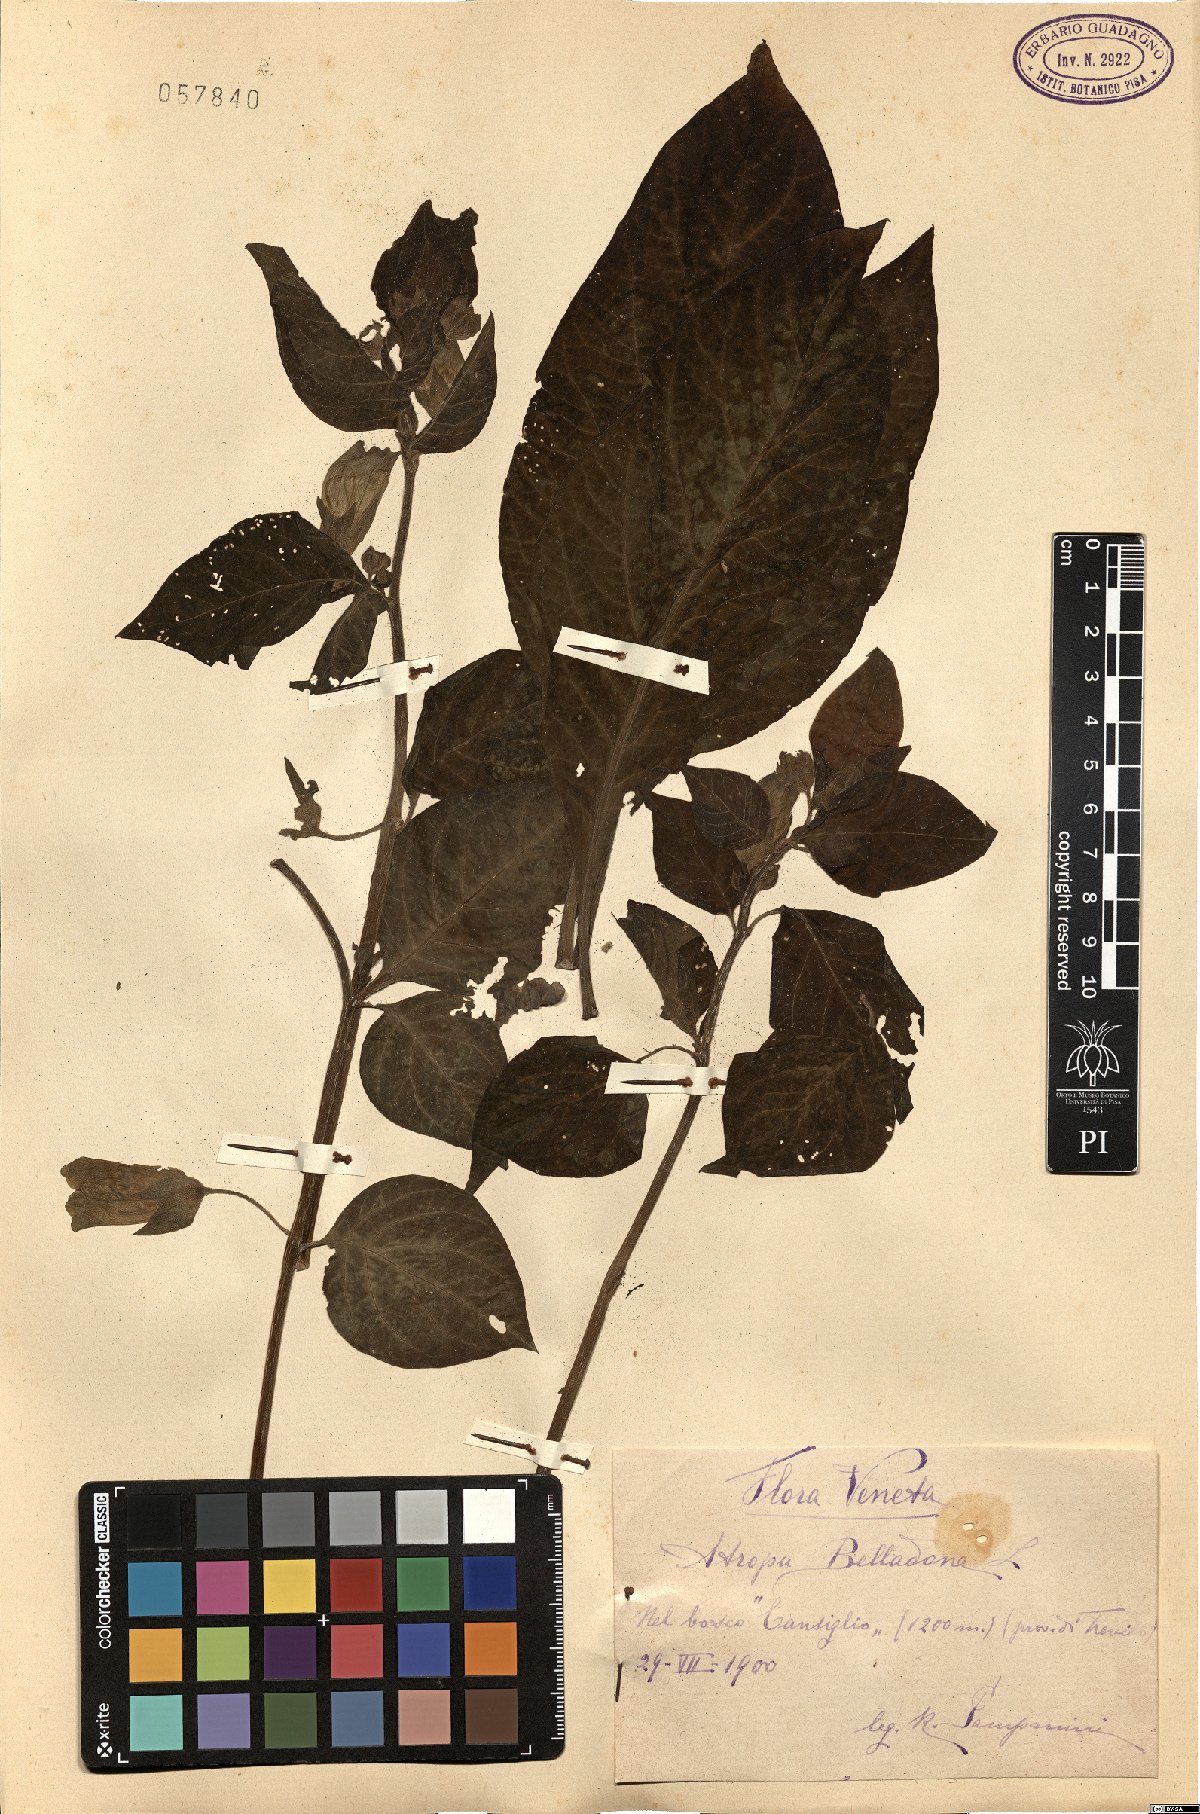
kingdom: Plantae
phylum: Tracheophyta
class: Magnoliopsida
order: Solanales
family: Solanaceae
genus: Atropa
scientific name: Atropa belladonna
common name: Deadly nightshade
